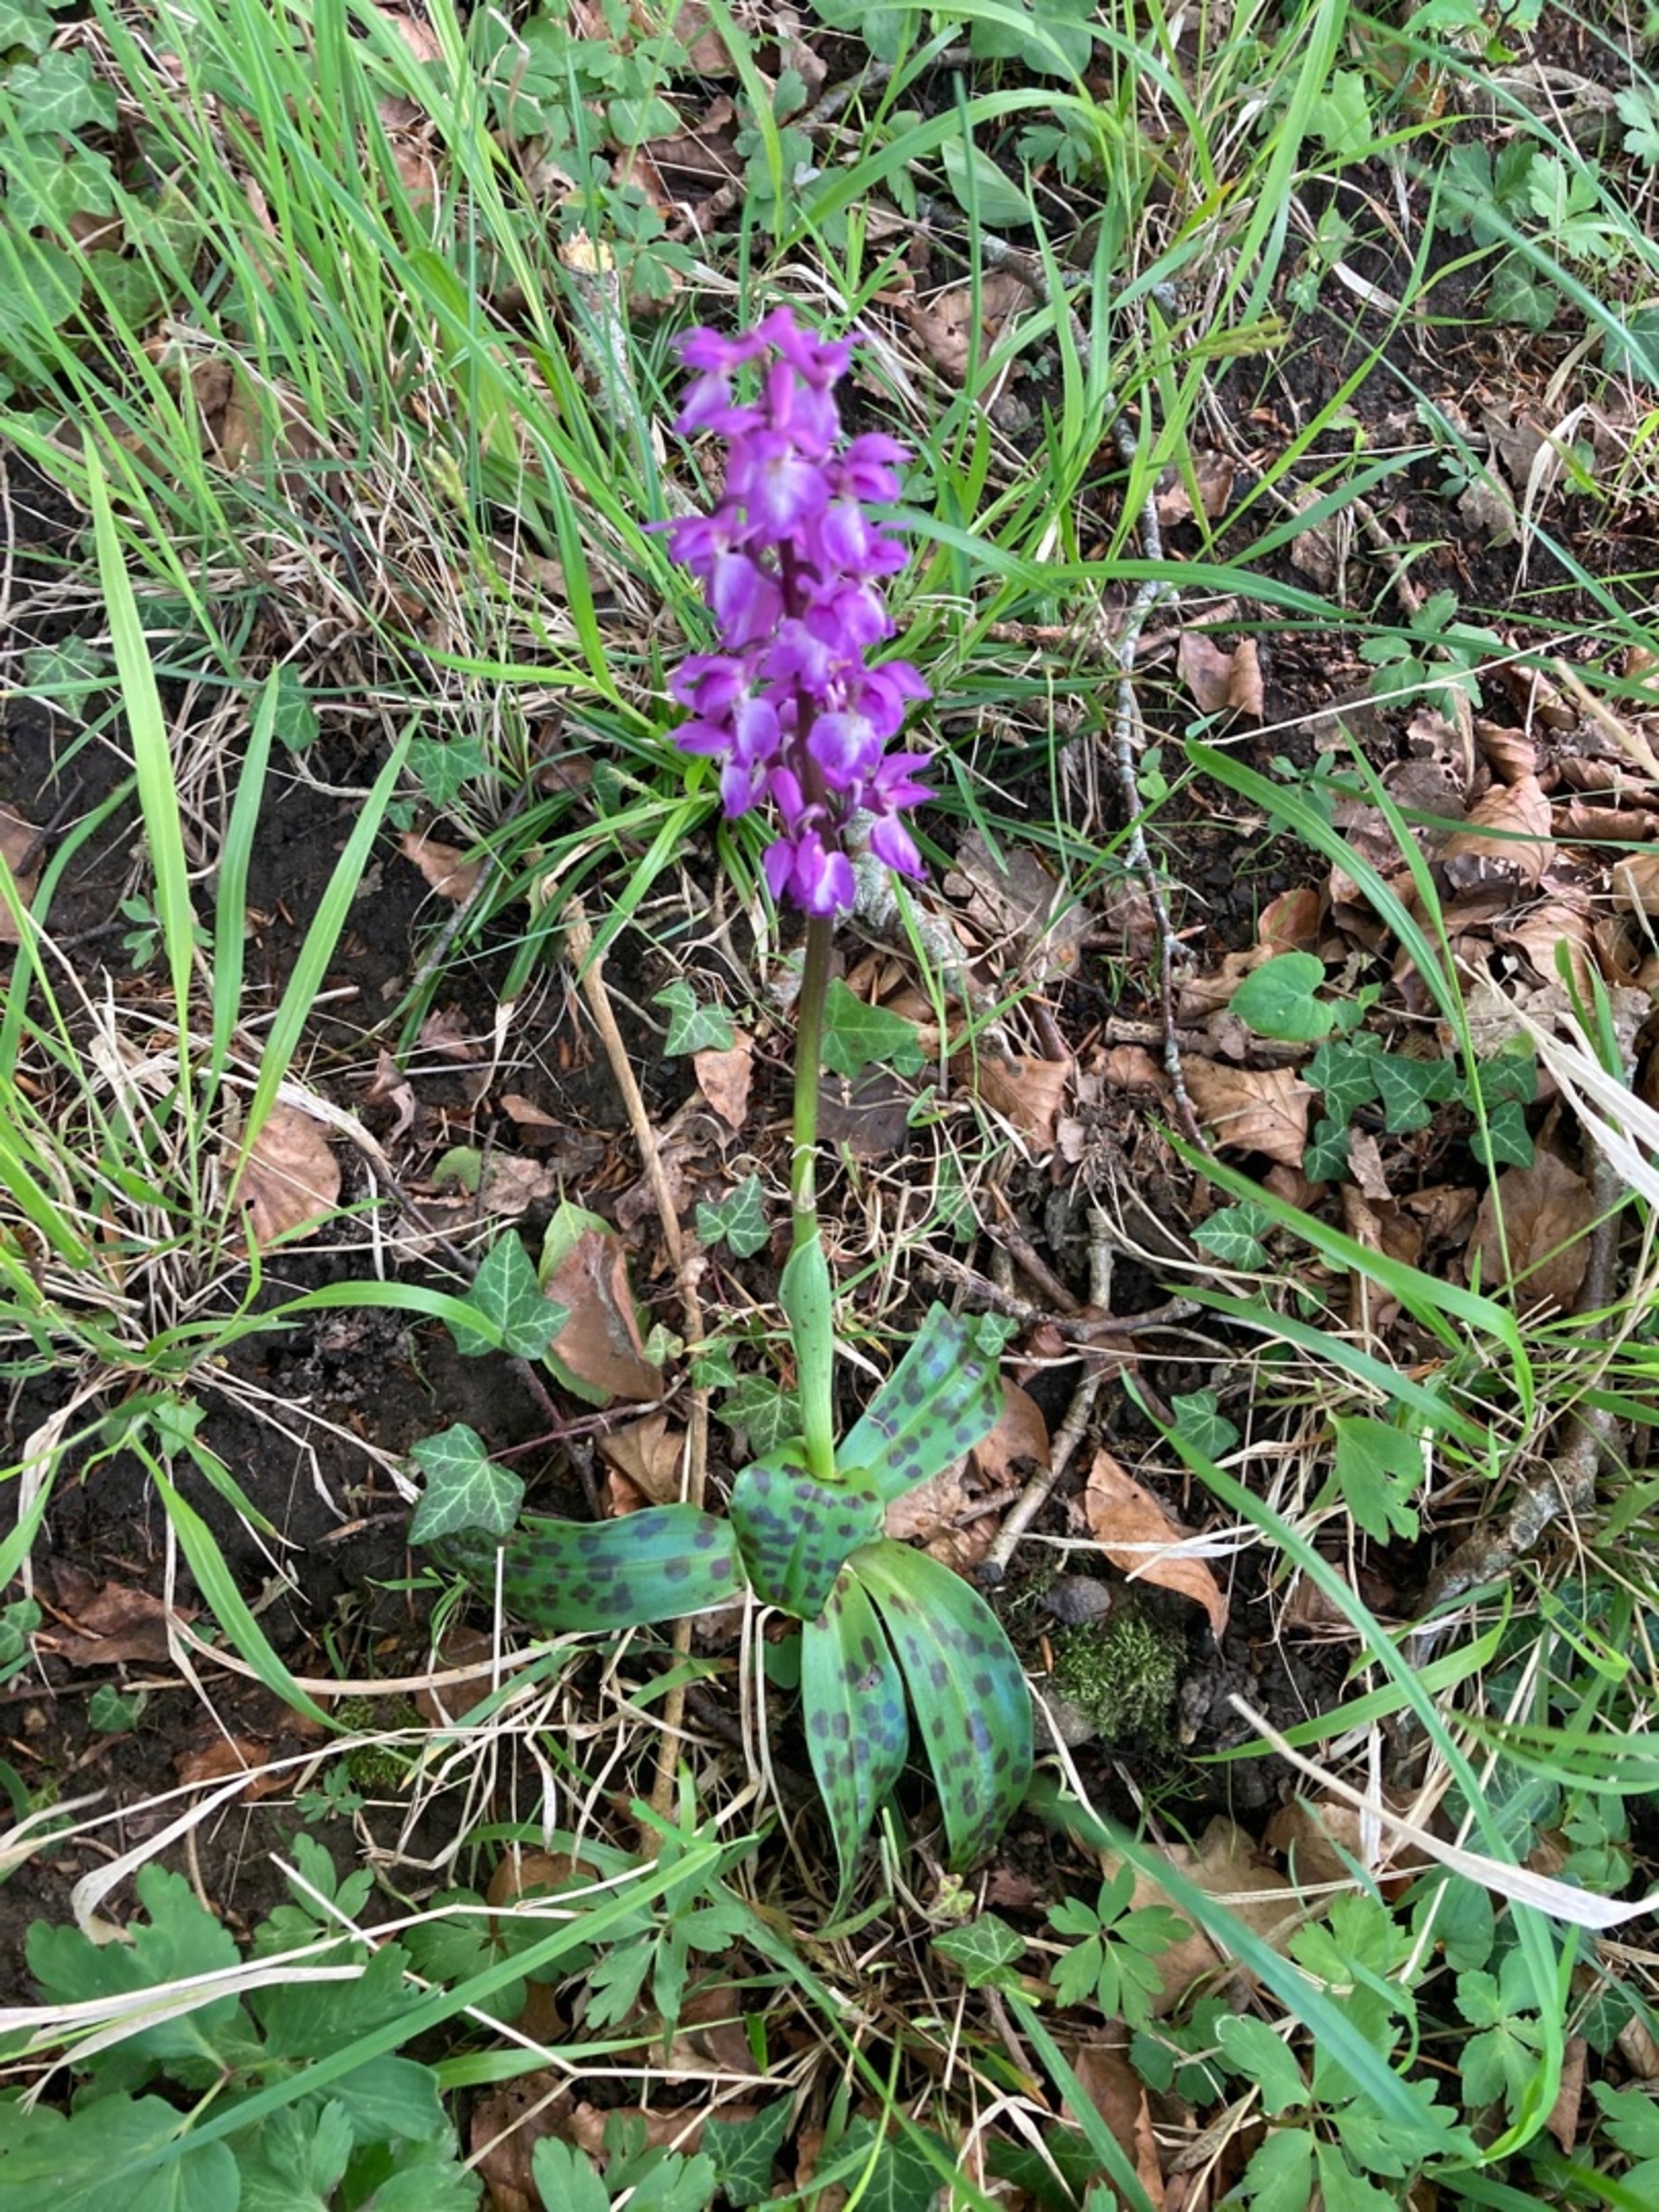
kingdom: Plantae
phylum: Tracheophyta
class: Liliopsida
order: Asparagales
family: Orchidaceae
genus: Orchis
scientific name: Orchis mascula
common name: Tyndakset gøgeurt
